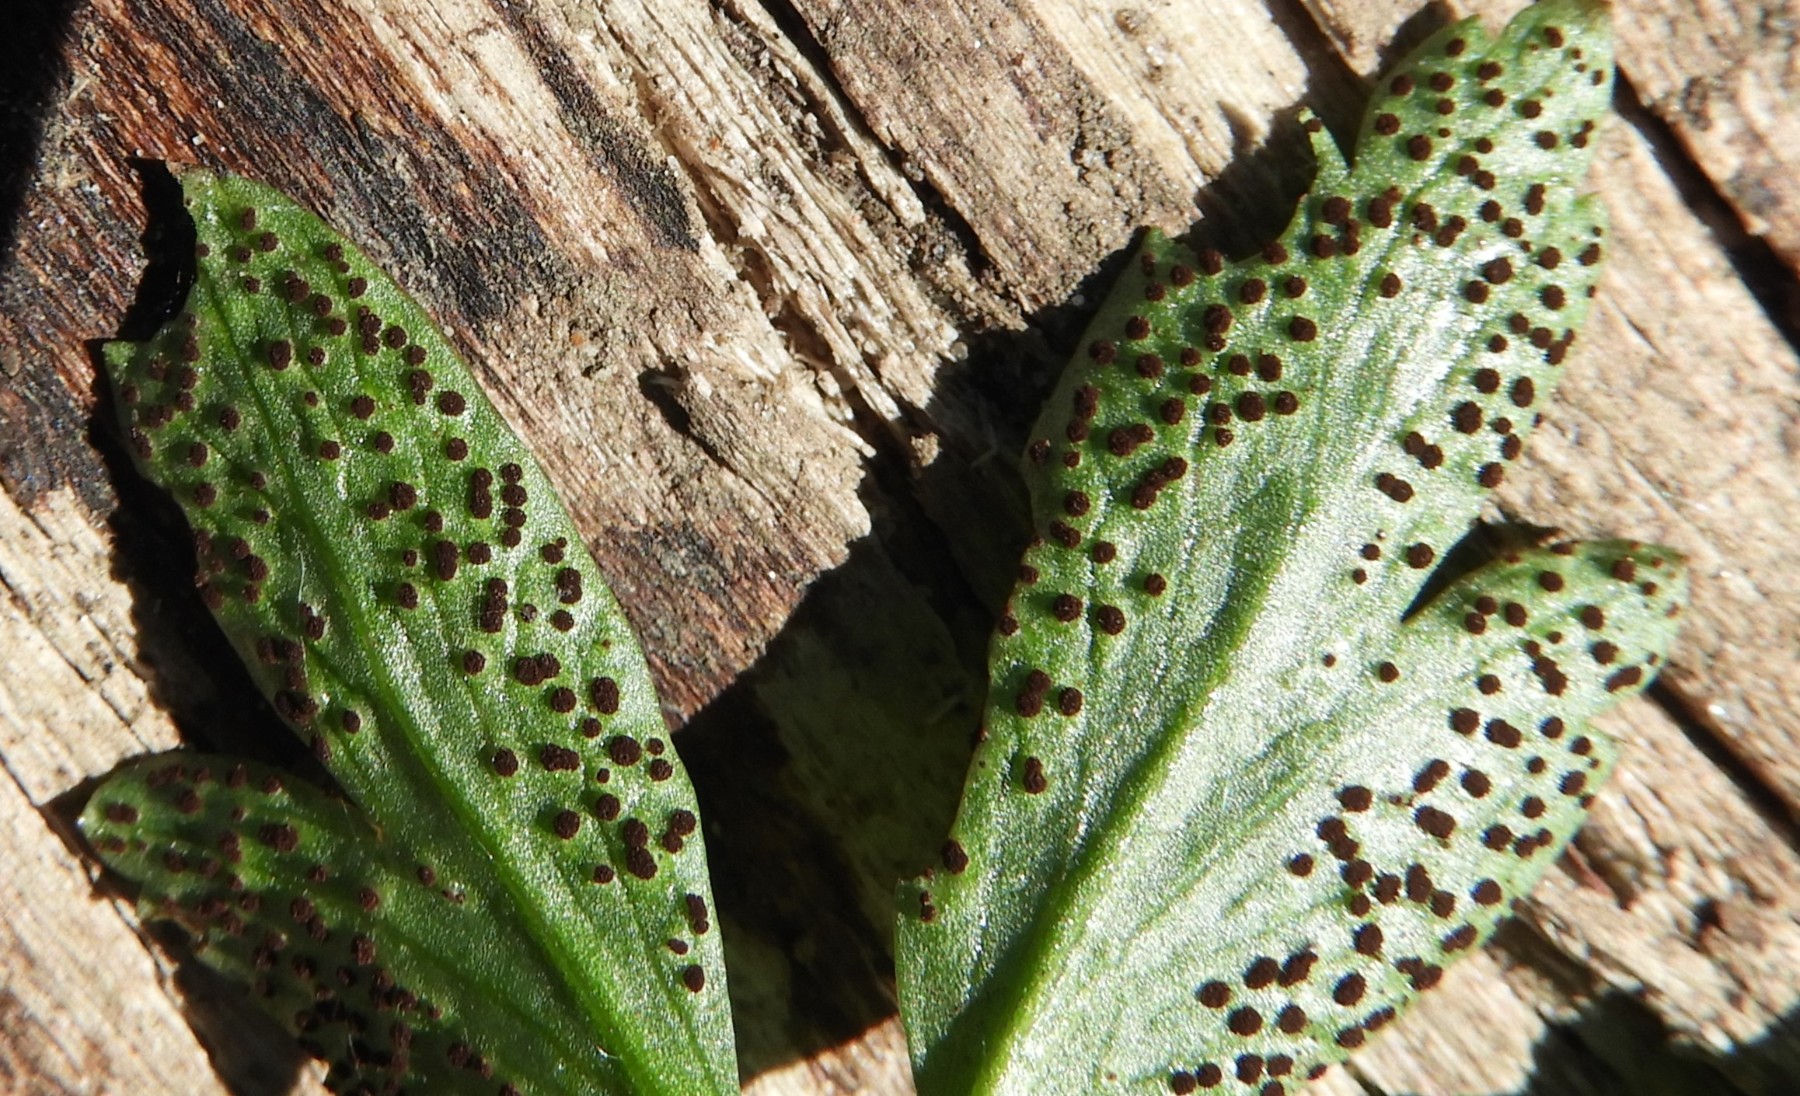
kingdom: Fungi
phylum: Basidiomycota
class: Pucciniomycetes
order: Pucciniales
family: Tranzscheliaceae
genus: Tranzschelia
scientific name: Tranzschelia anemones
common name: anemone-knæksporerust
